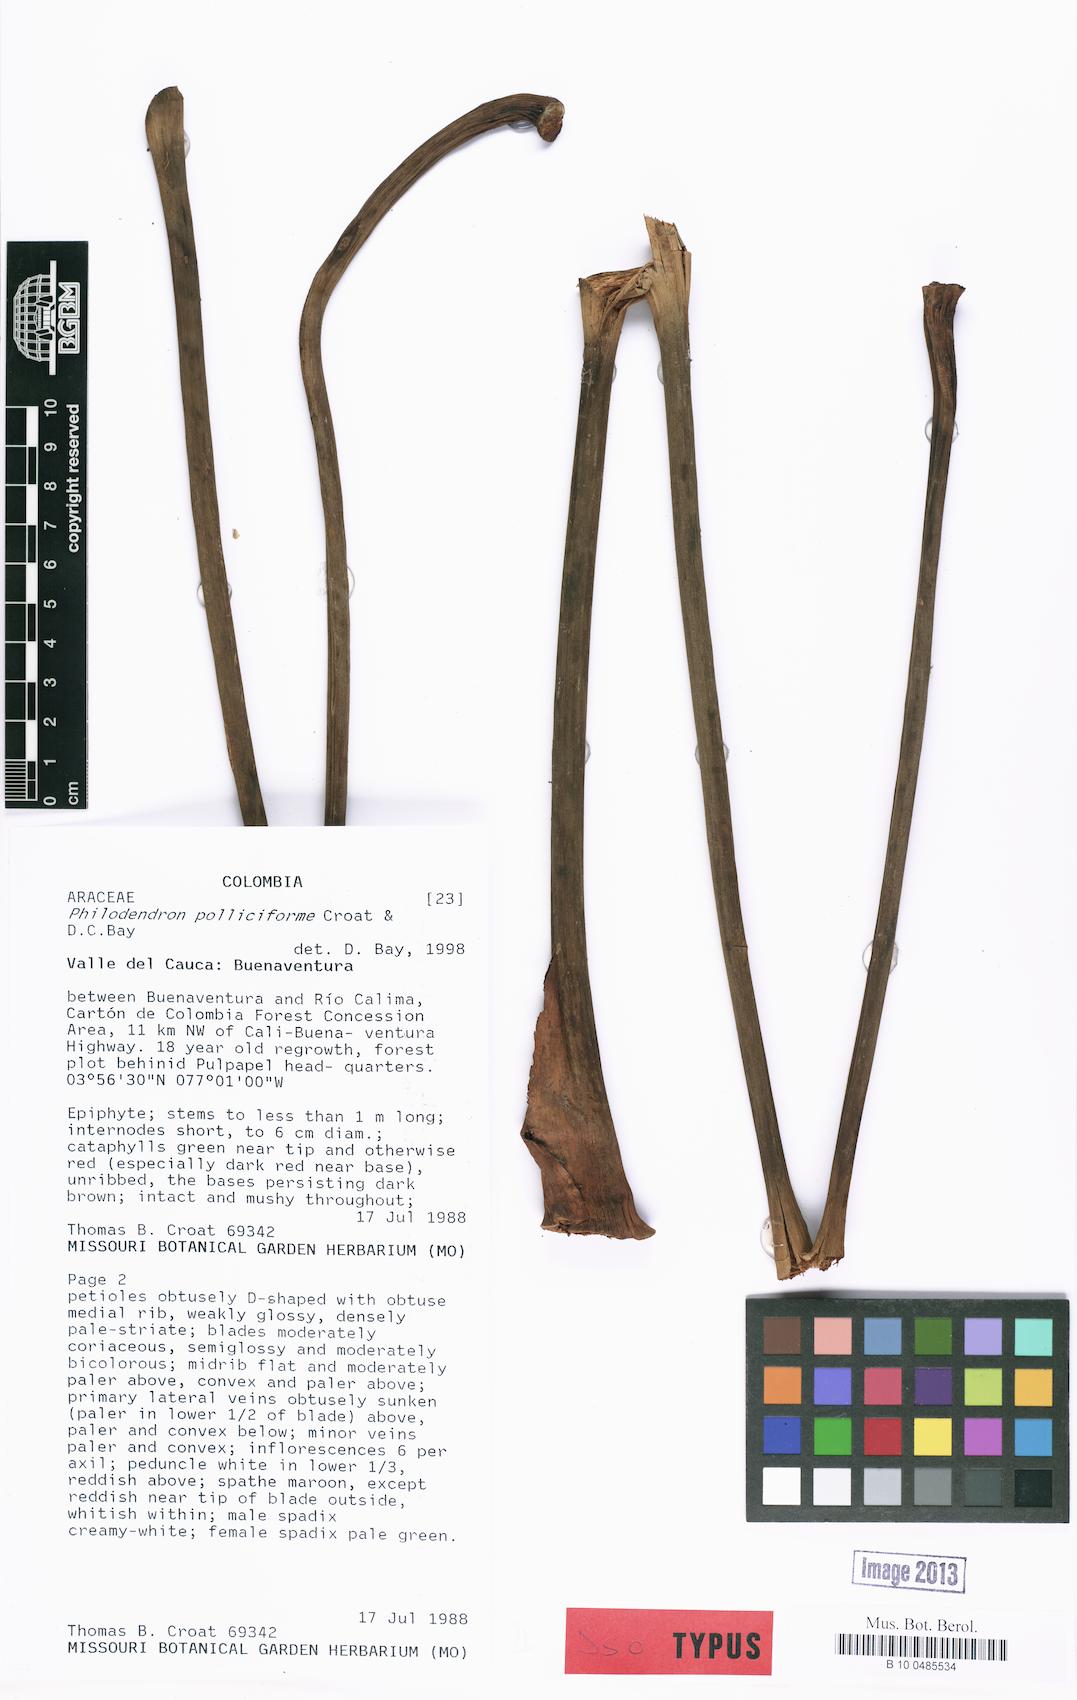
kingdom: Plantae
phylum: Tracheophyta
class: Liliopsida
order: Alismatales
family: Araceae
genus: Philodendron
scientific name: Philodendron polliciforme
